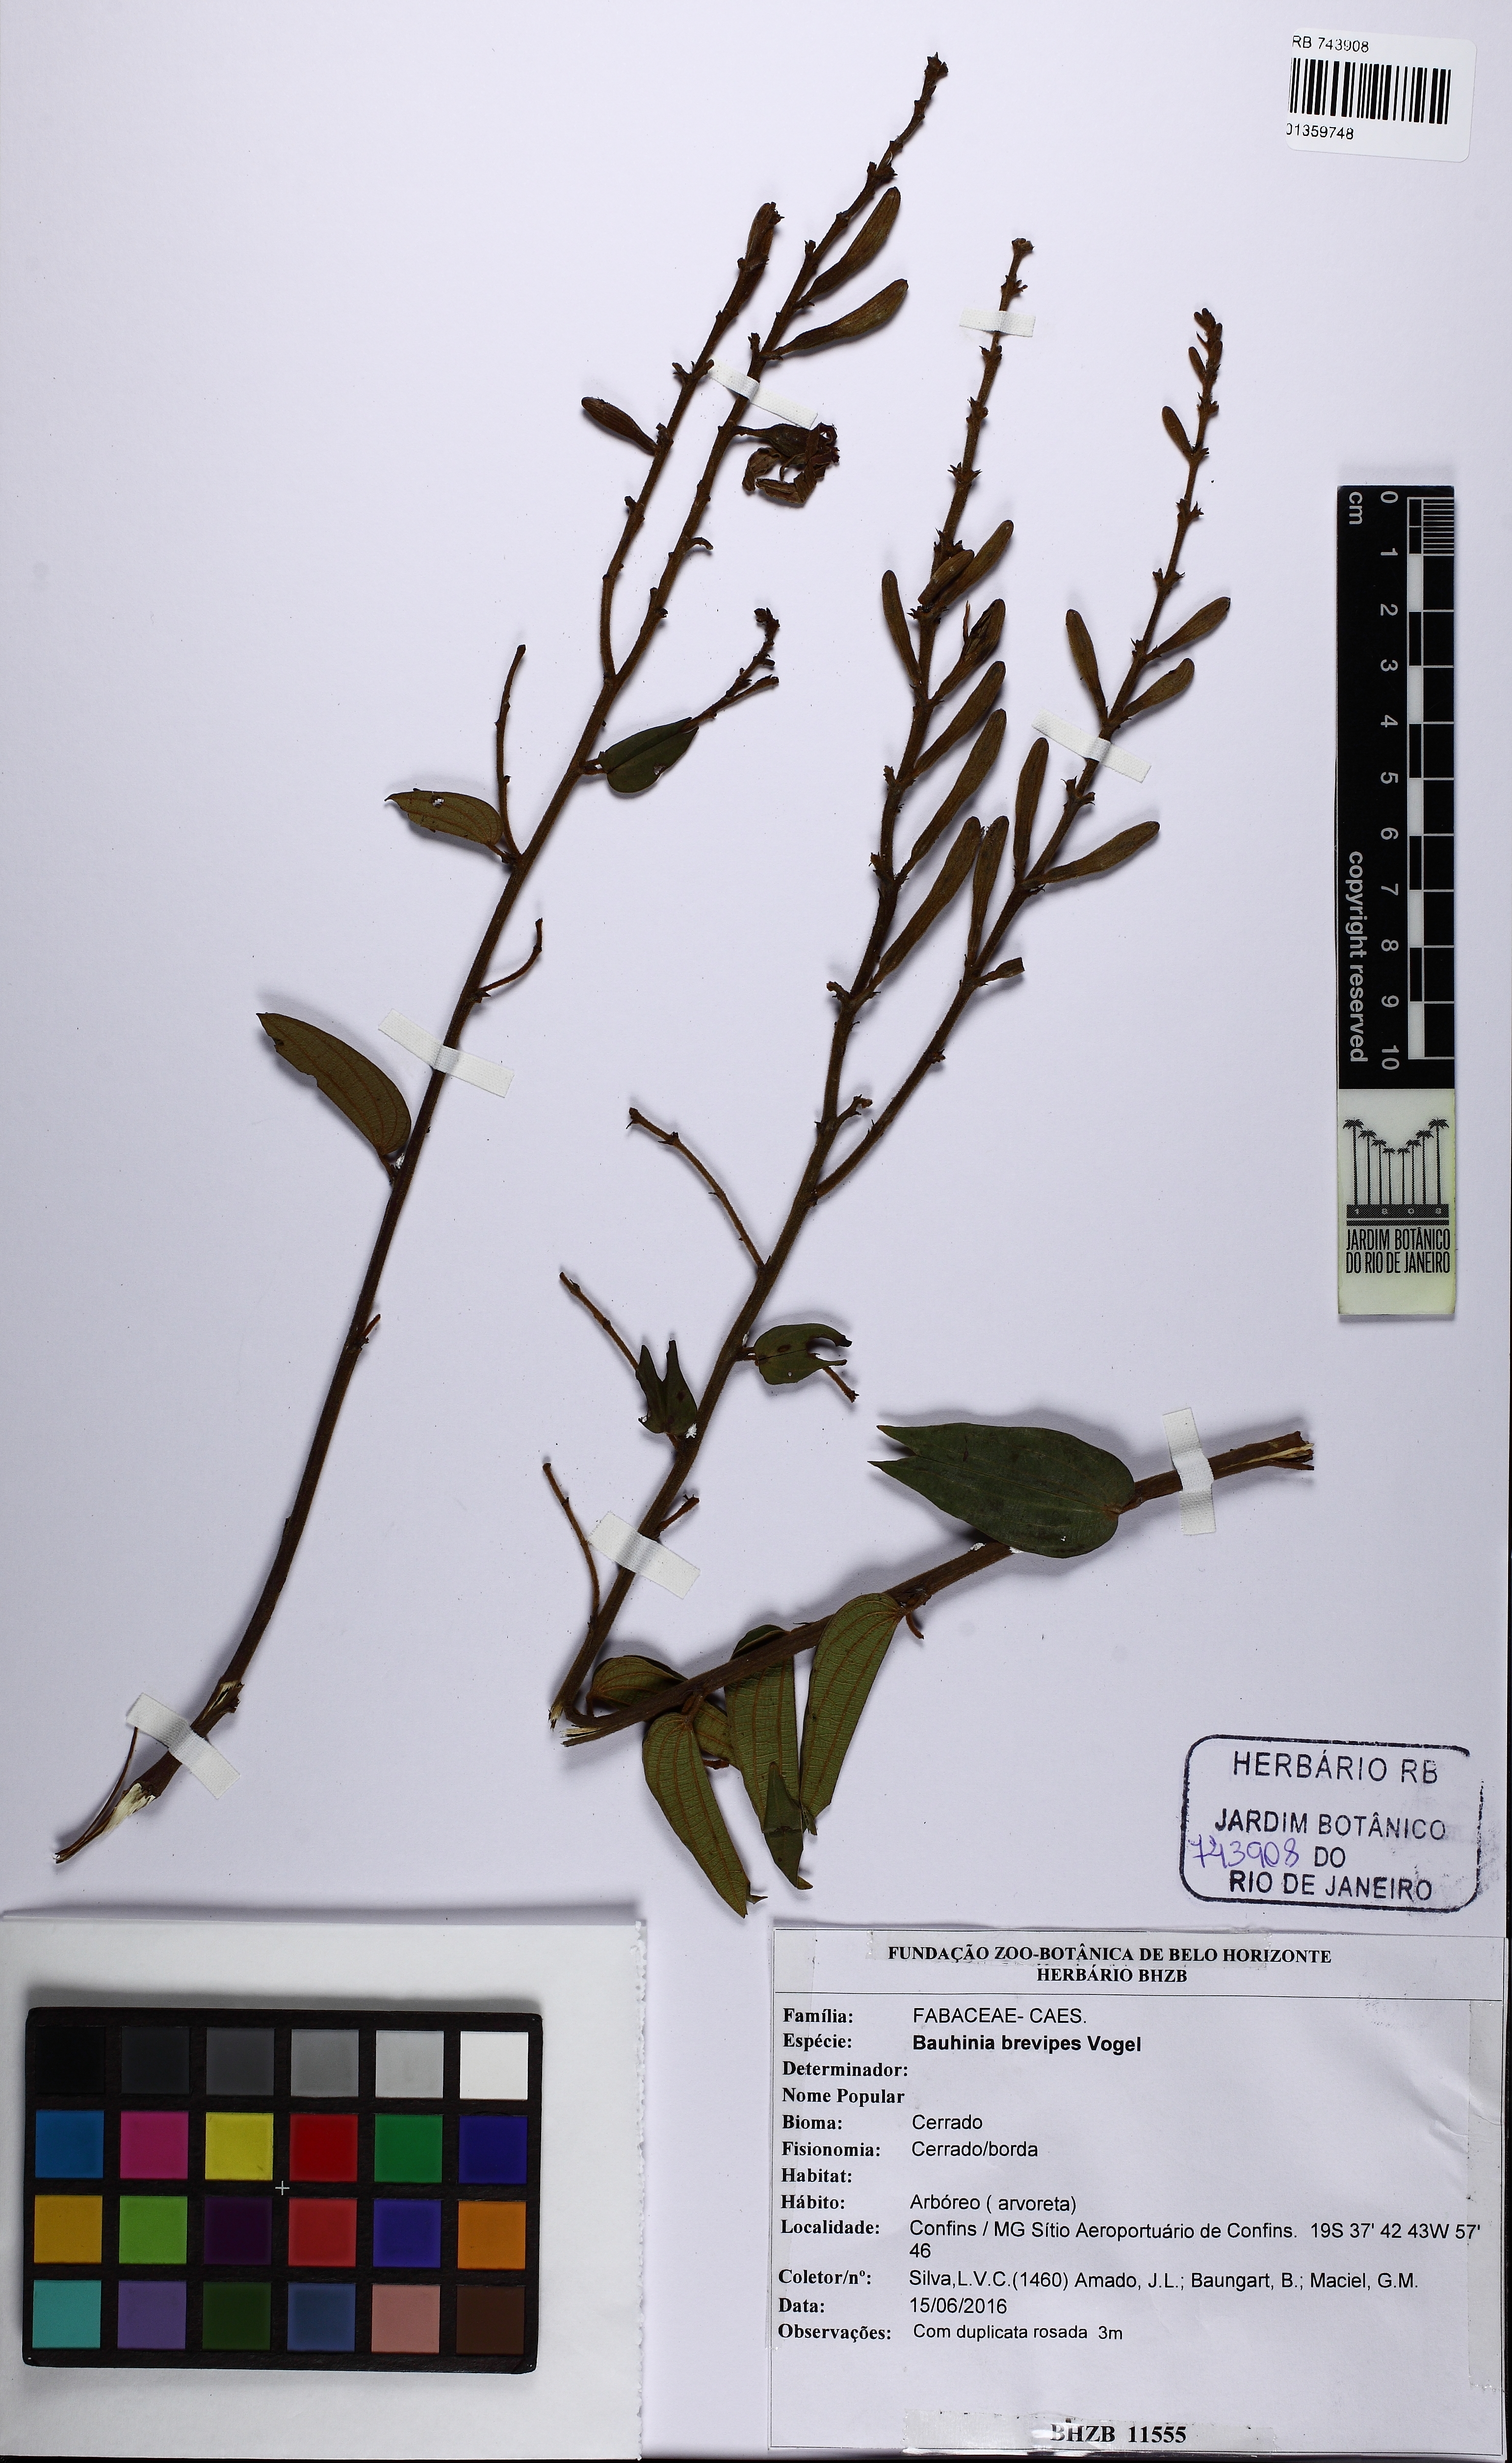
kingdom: Plantae
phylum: Tracheophyta
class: Magnoliopsida
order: Fabales
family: Fabaceae
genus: Bauhinia
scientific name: Bauhinia brevipes
